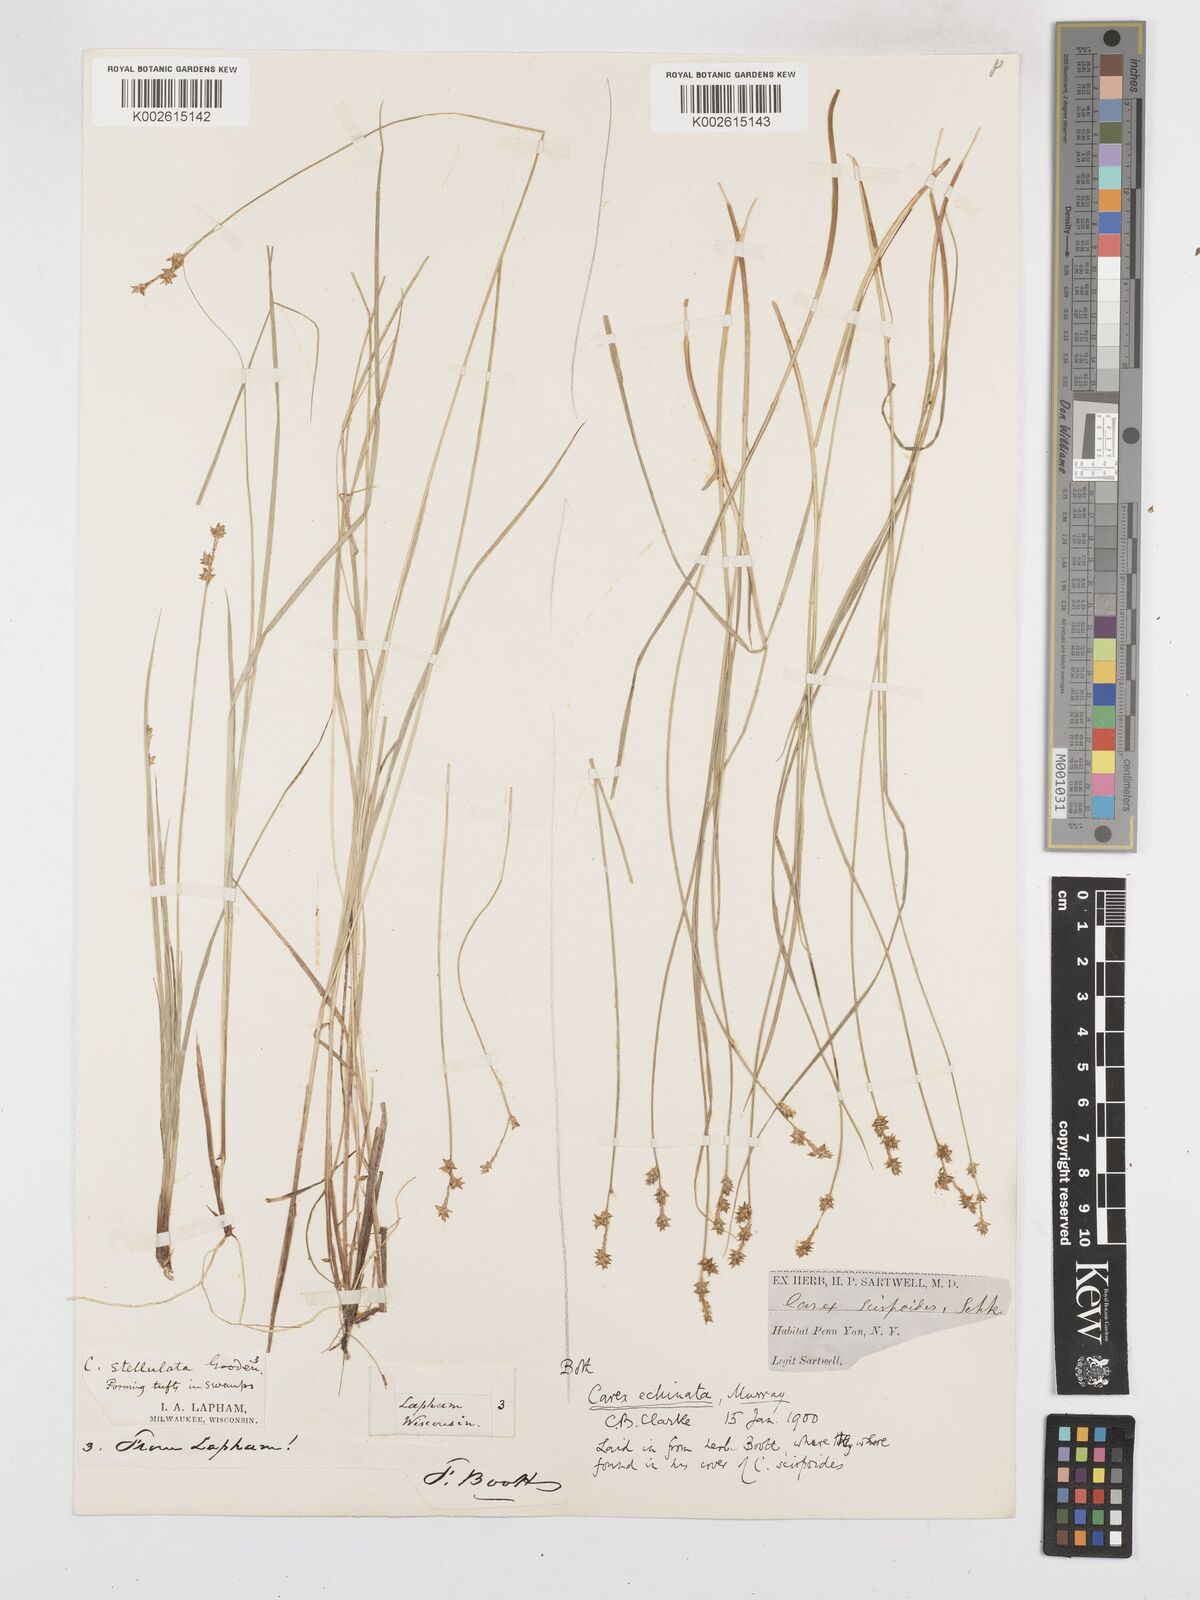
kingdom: Plantae
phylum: Tracheophyta
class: Liliopsida
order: Poales
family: Cyperaceae
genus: Carex
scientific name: Carex echinata
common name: Star sedge
